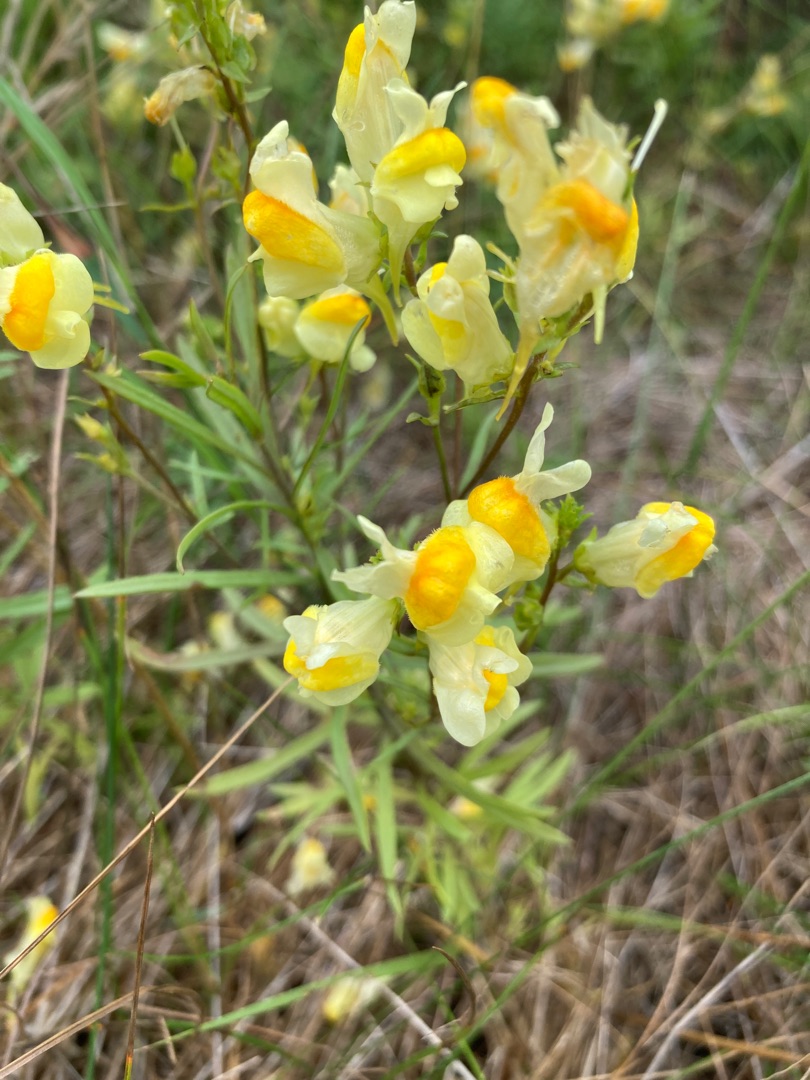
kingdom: Plantae
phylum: Tracheophyta
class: Magnoliopsida
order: Lamiales
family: Plantaginaceae
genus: Linaria
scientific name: Linaria vulgaris
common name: Almindelig torskemund
